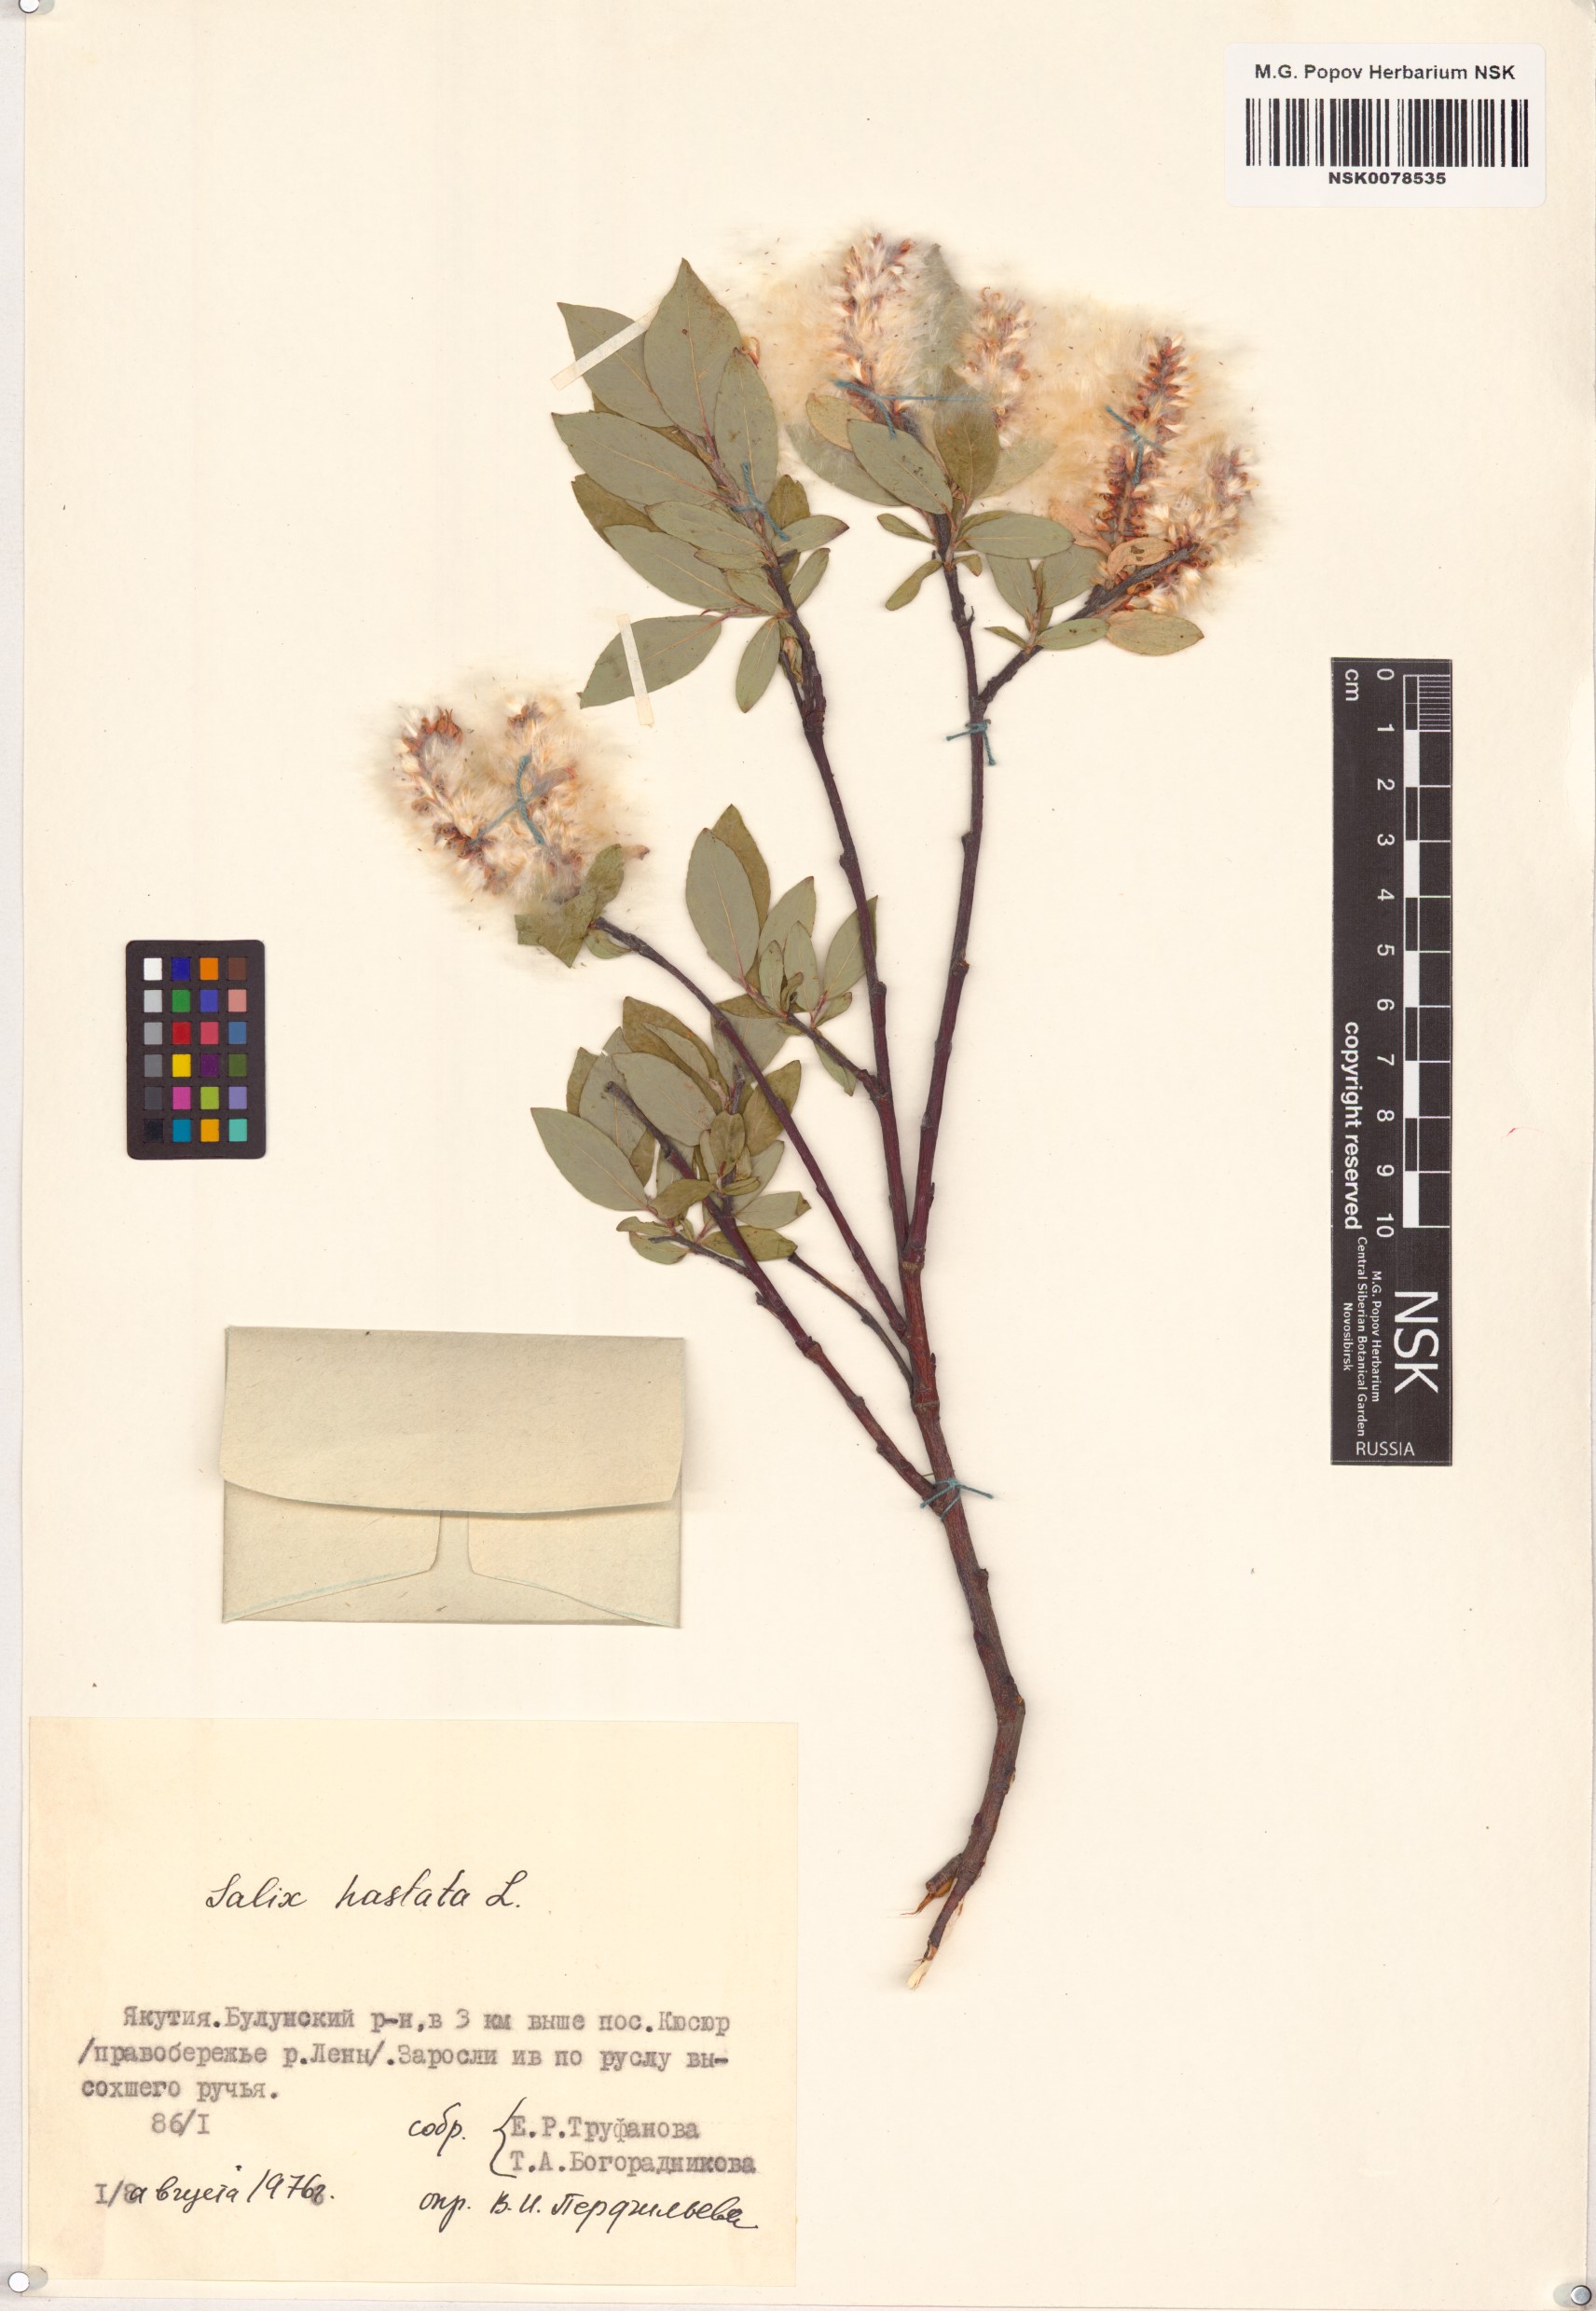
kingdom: Plantae
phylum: Tracheophyta
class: Magnoliopsida
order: Malpighiales
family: Salicaceae
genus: Salix
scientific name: Salix hastata
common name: Halberd willow
